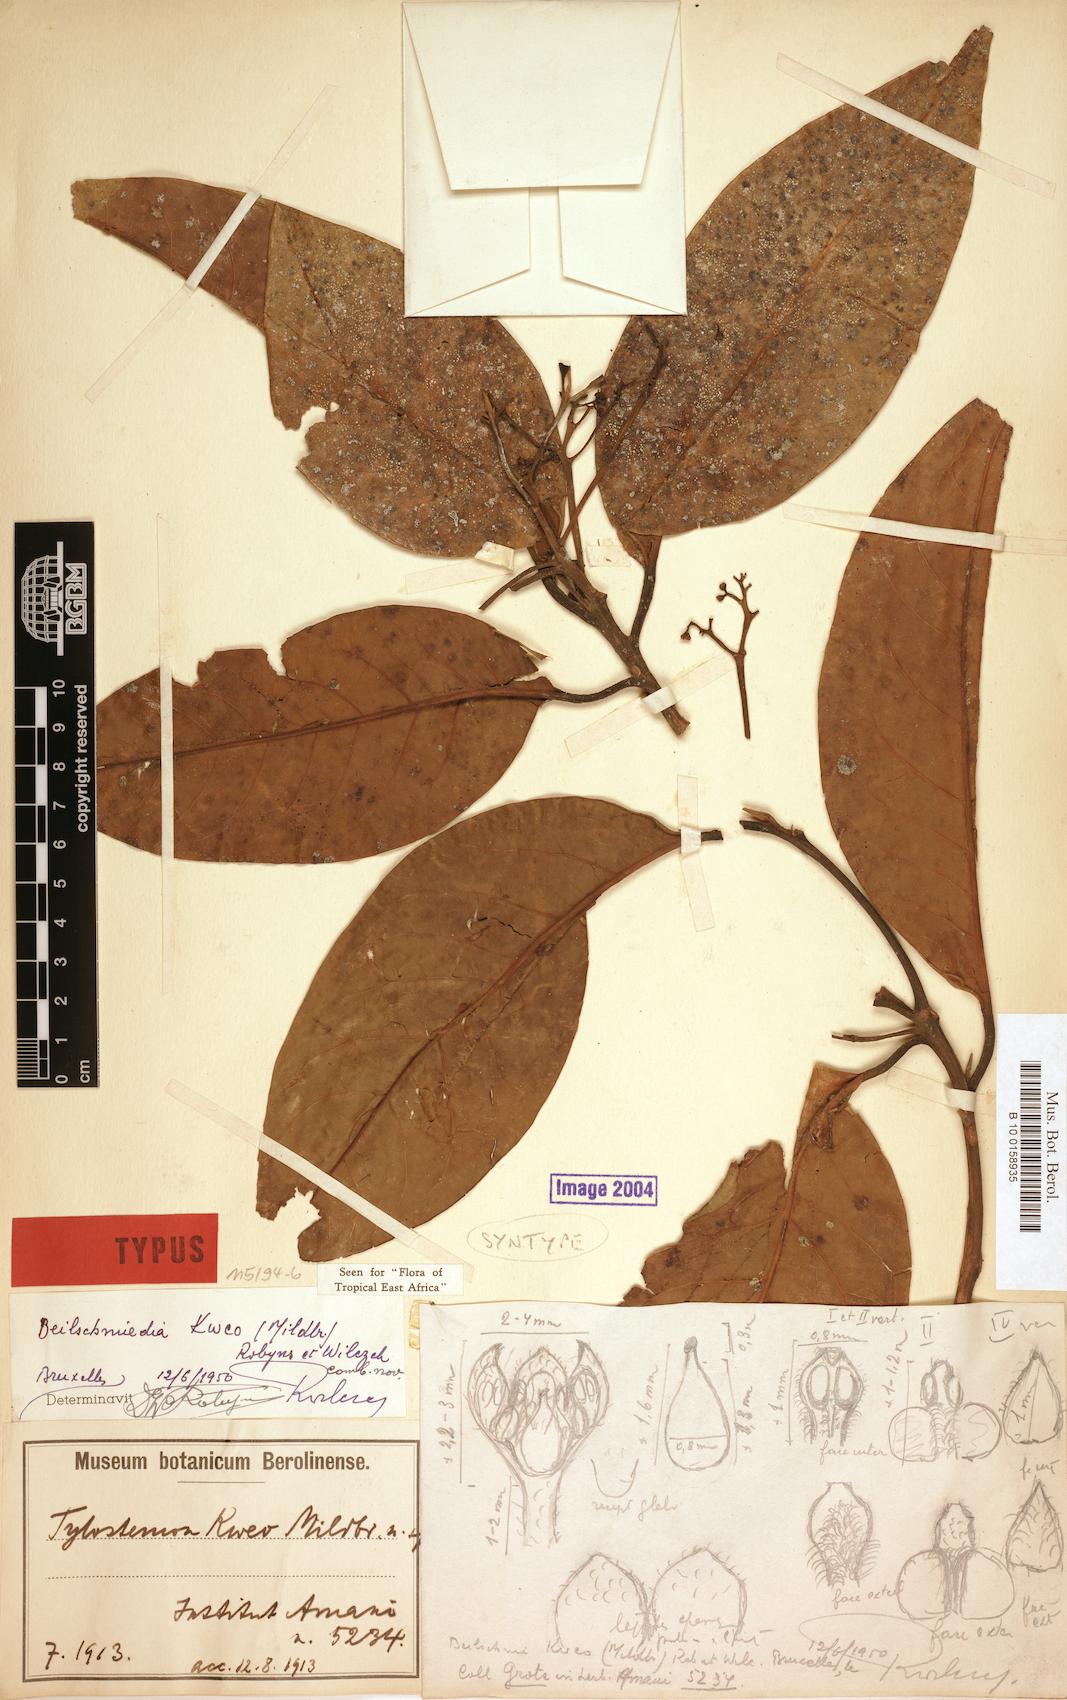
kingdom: Plantae
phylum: Tracheophyta
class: Magnoliopsida
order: Laurales
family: Lauraceae
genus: Beilschmiedia
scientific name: Beilschmiedia kweo
